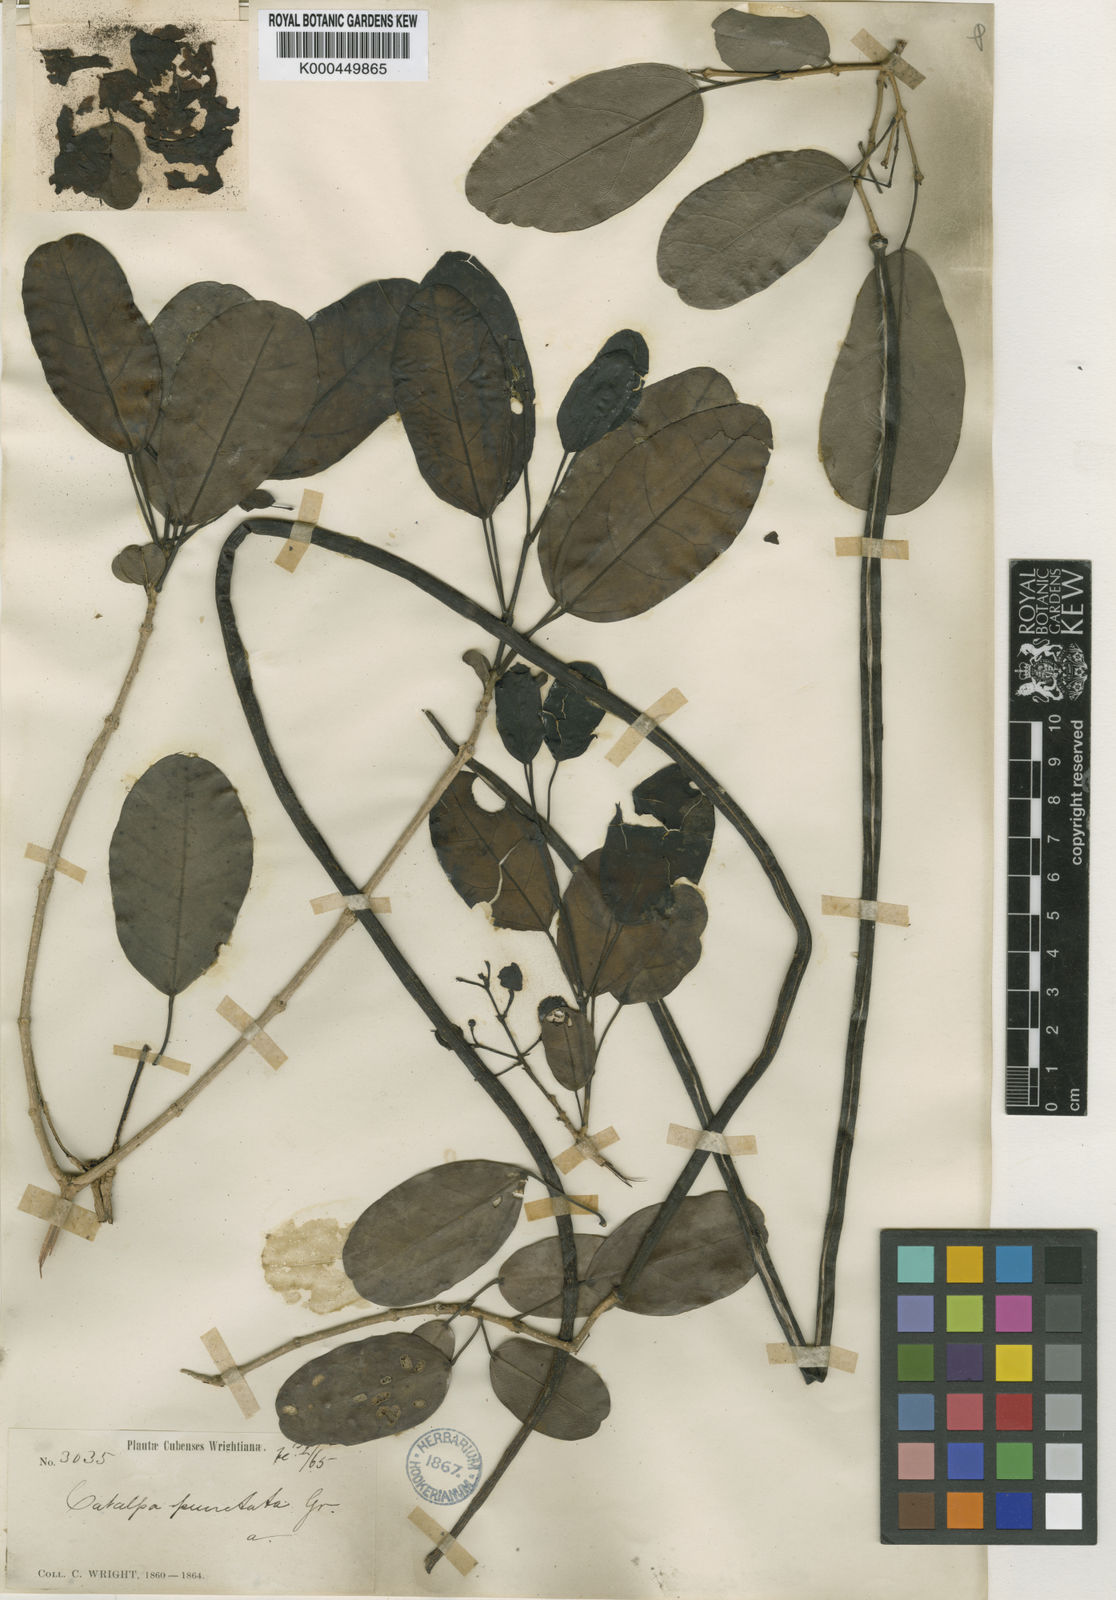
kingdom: Plantae
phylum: Tracheophyta
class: Magnoliopsida
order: Lamiales
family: Bignoniaceae
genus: Catalpa
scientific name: Catalpa macrocarpa
